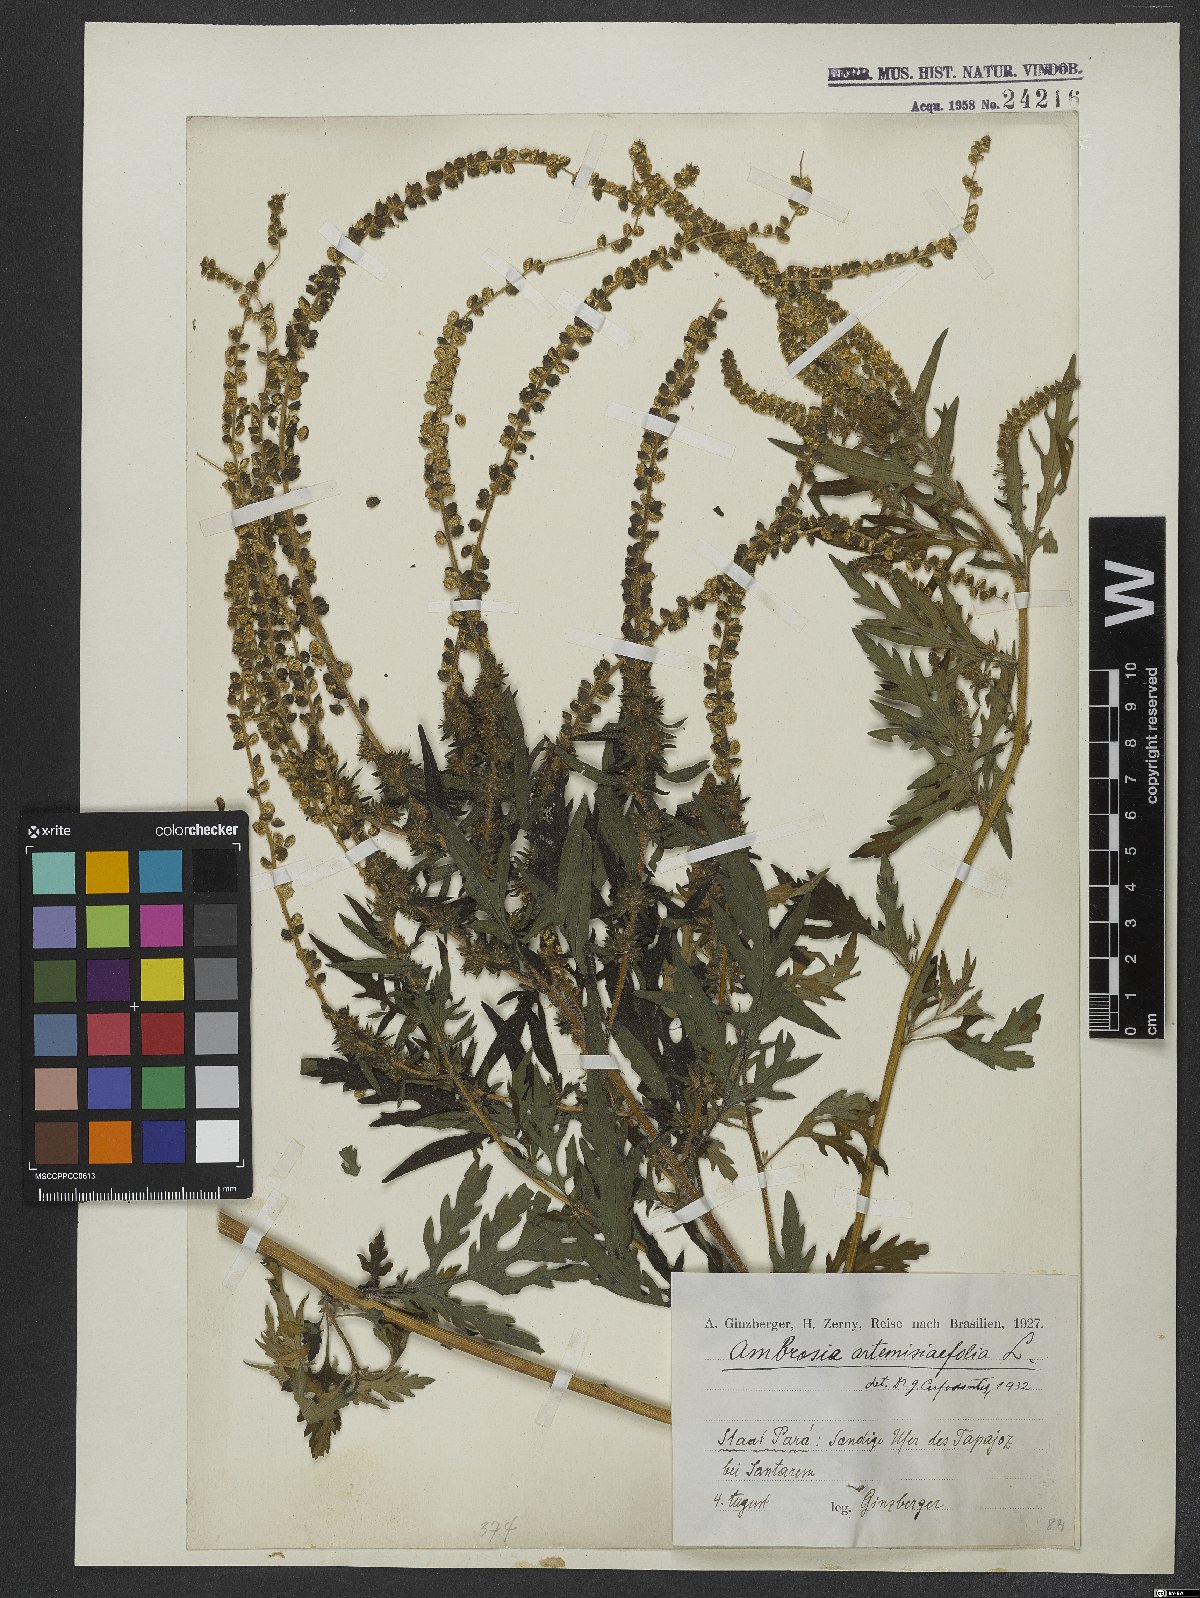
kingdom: Plantae
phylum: Tracheophyta
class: Magnoliopsida
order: Asterales
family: Asteraceae
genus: Ambrosia
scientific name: Ambrosia artemisiifolia
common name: Annual ragweed
